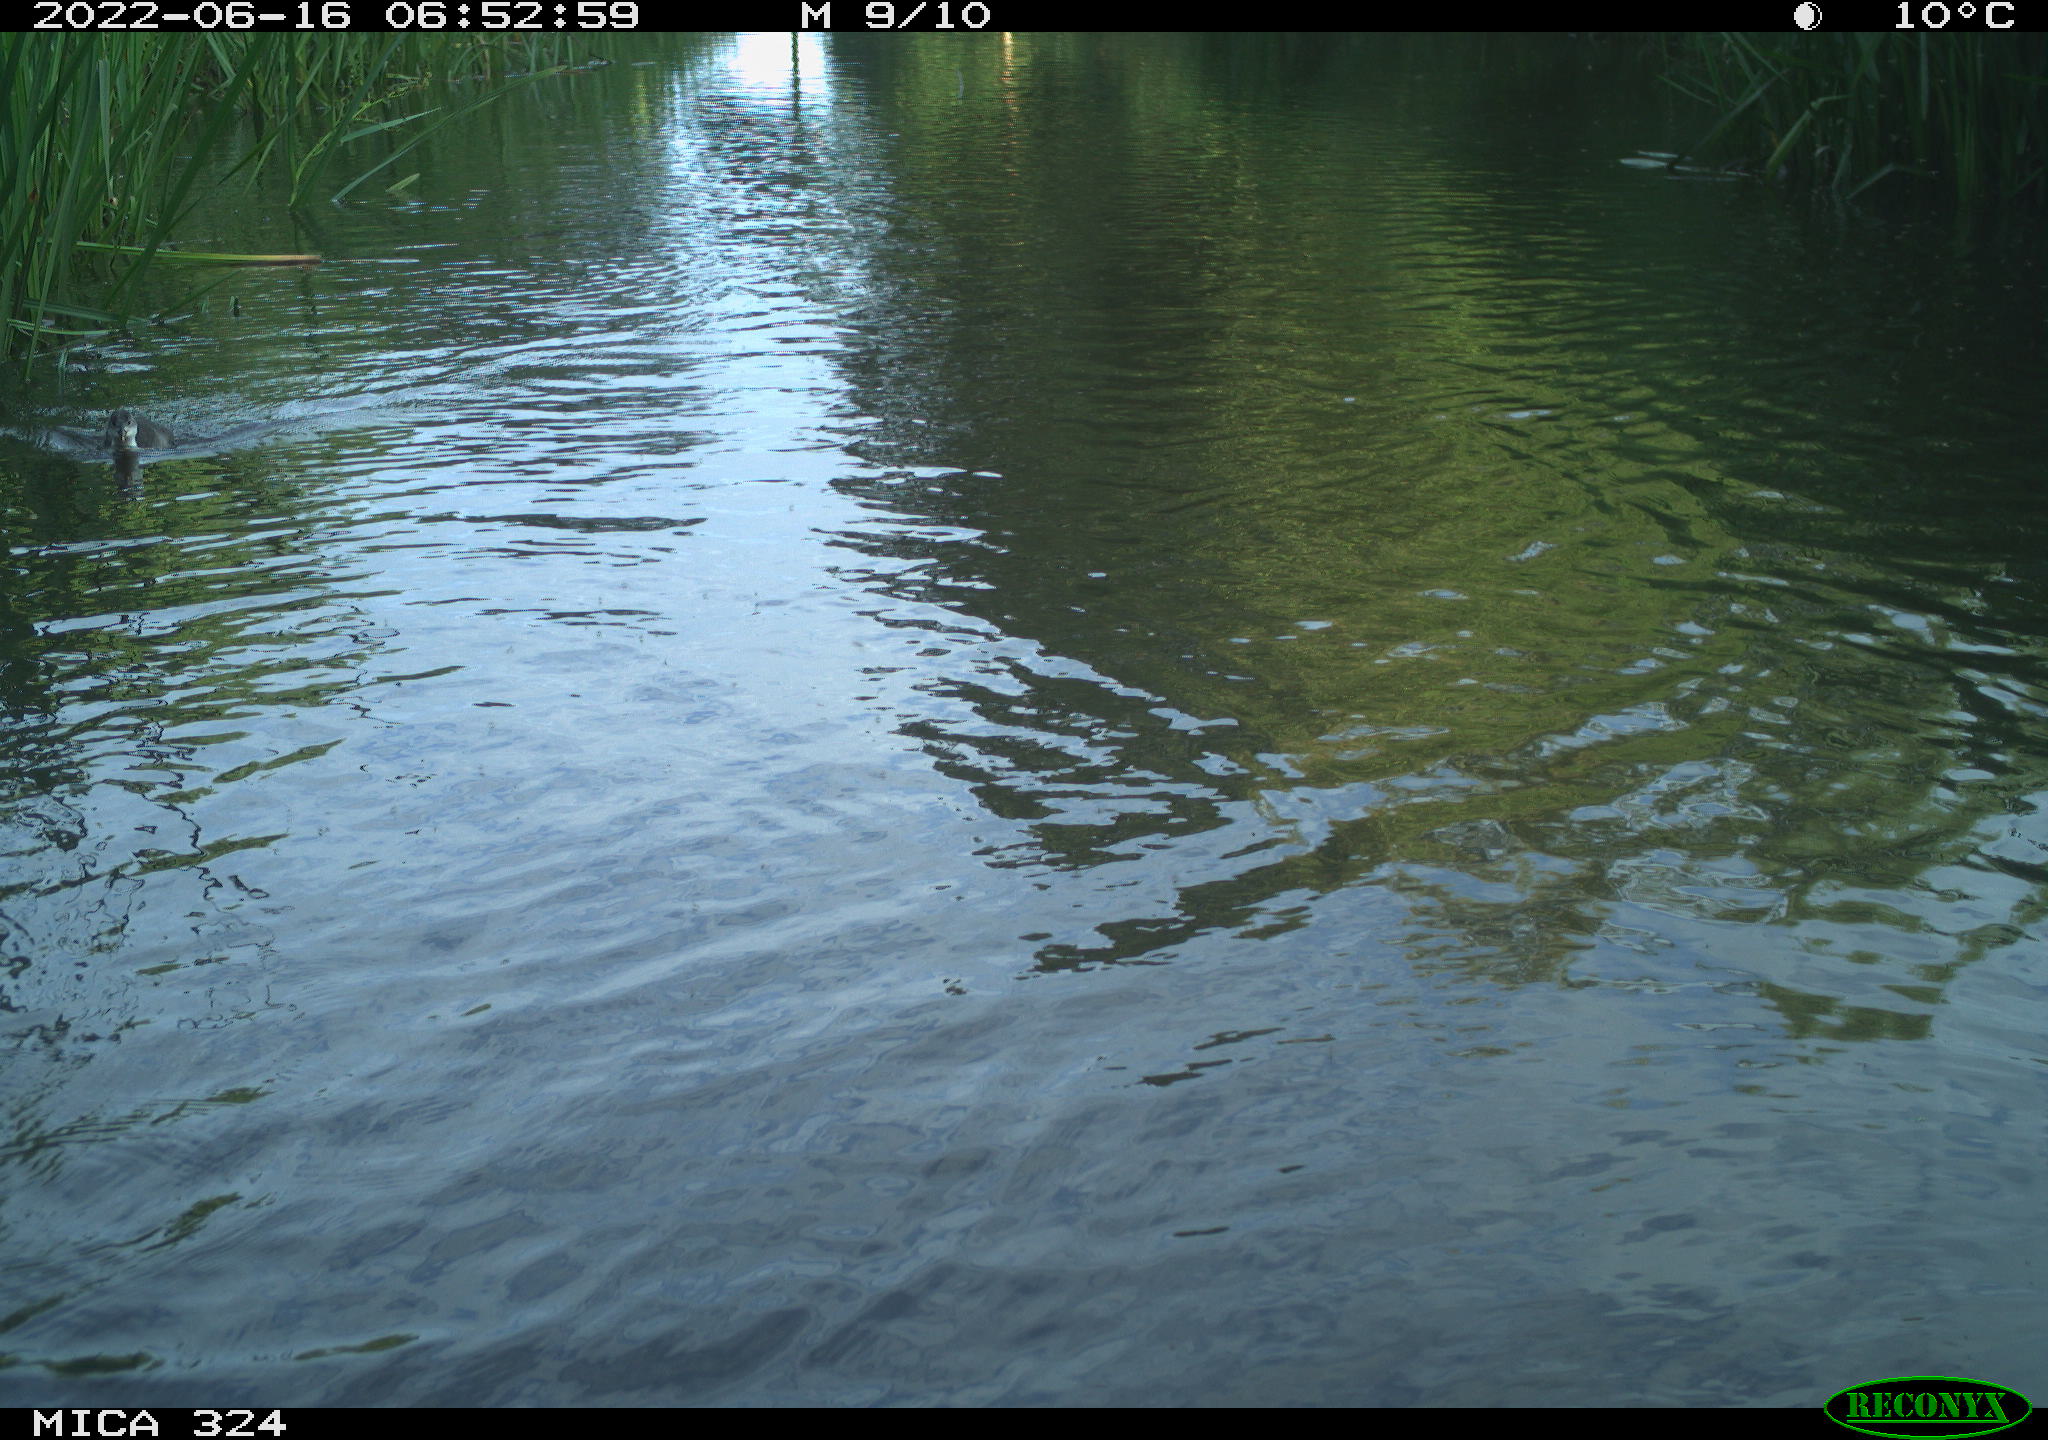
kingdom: Animalia
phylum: Chordata
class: Aves
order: Gruiformes
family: Rallidae
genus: Fulica
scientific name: Fulica atra
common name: Eurasian coot
